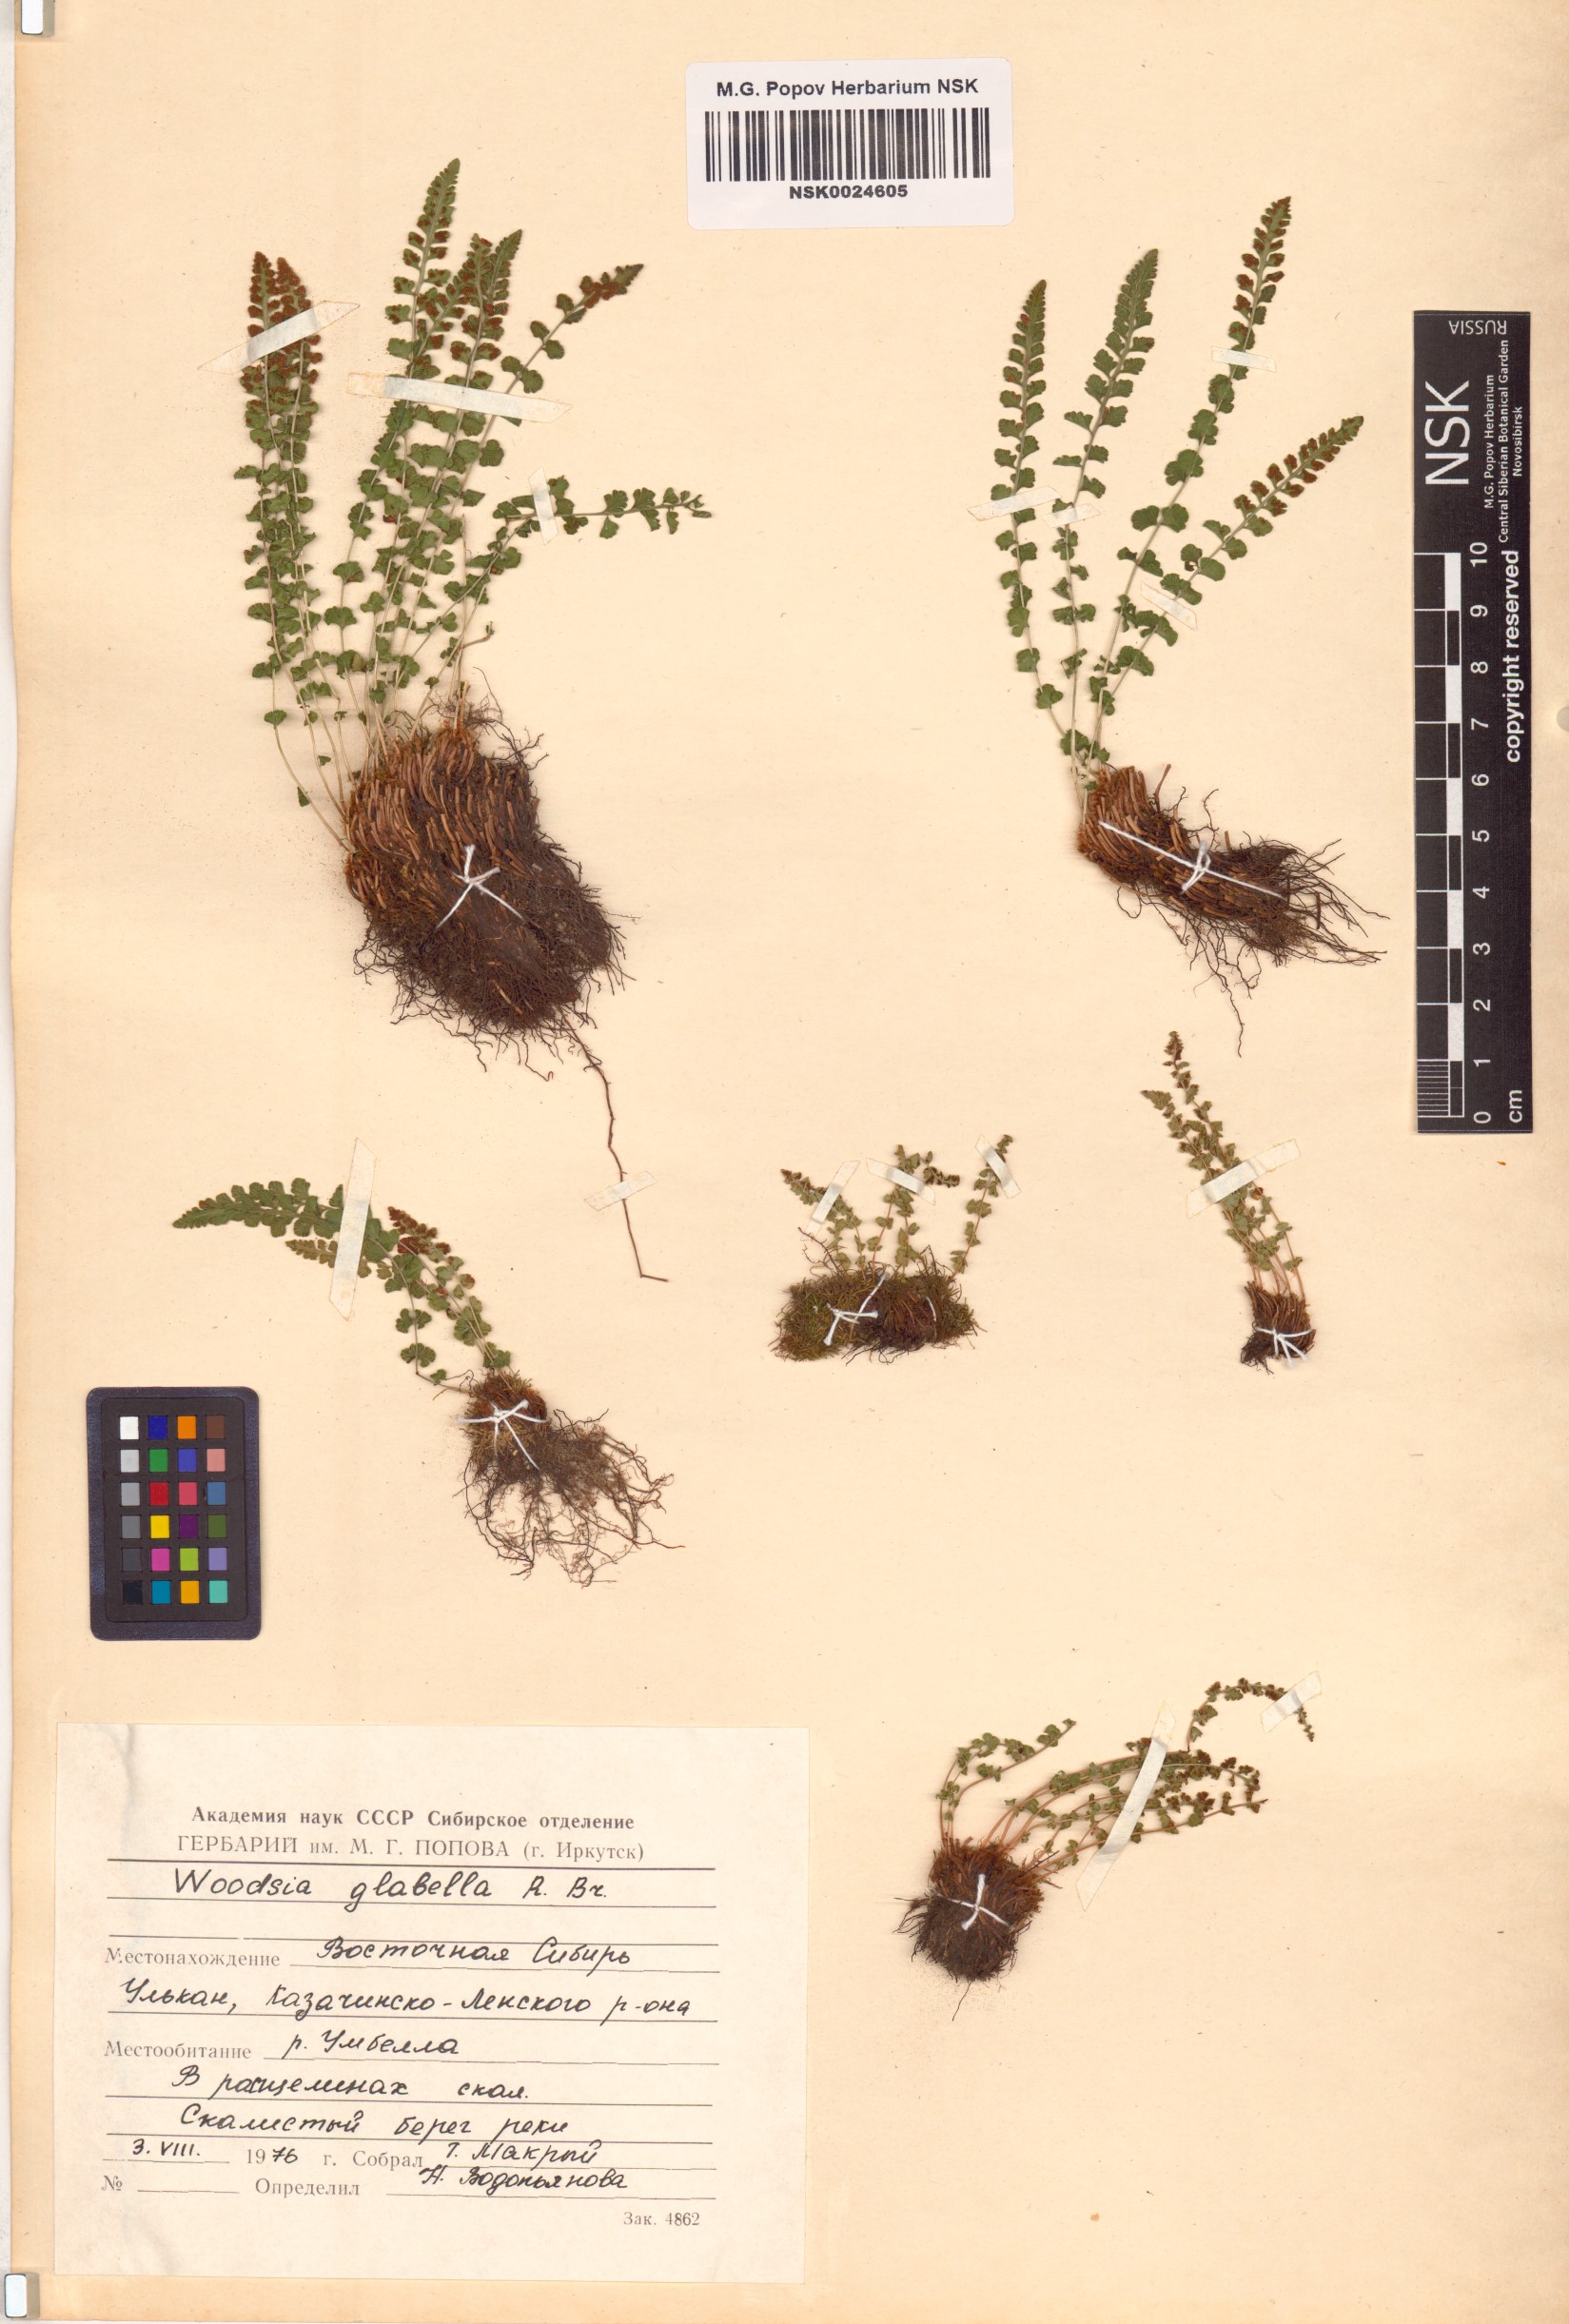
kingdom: Plantae
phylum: Tracheophyta
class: Polypodiopsida
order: Polypodiales
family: Woodsiaceae
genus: Woodsia
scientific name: Woodsia glabella
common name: Smooth woodsia
